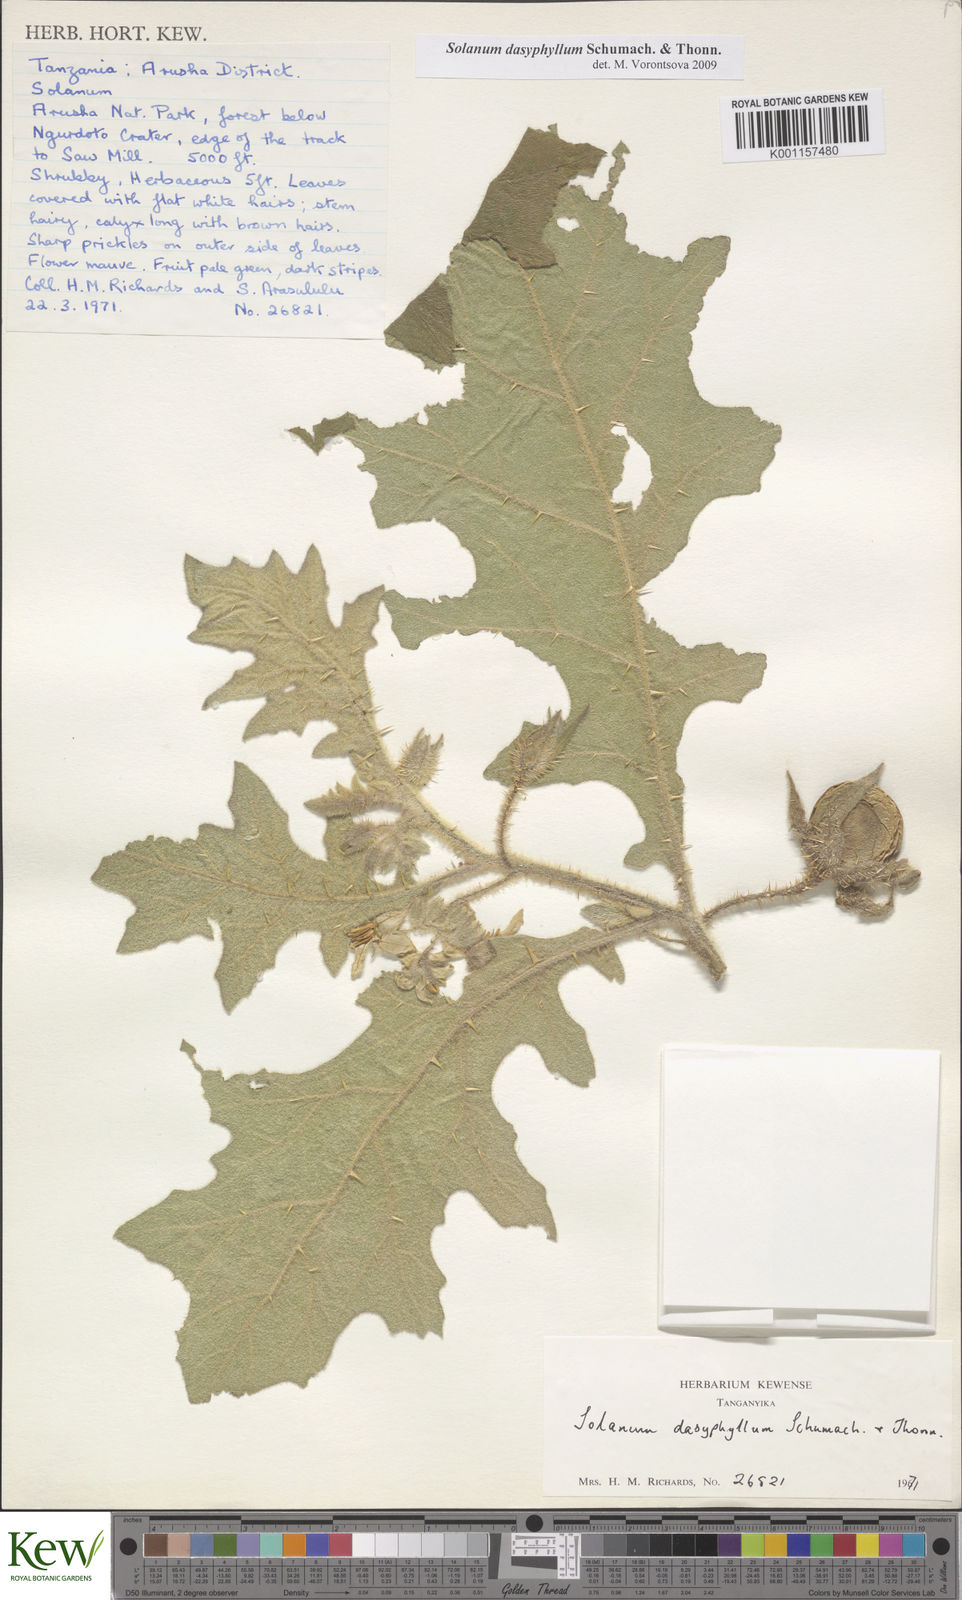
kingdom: Plantae
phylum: Tracheophyta
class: Magnoliopsida
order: Solanales
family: Solanaceae
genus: Solanum
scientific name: Solanum dasyphyllum
